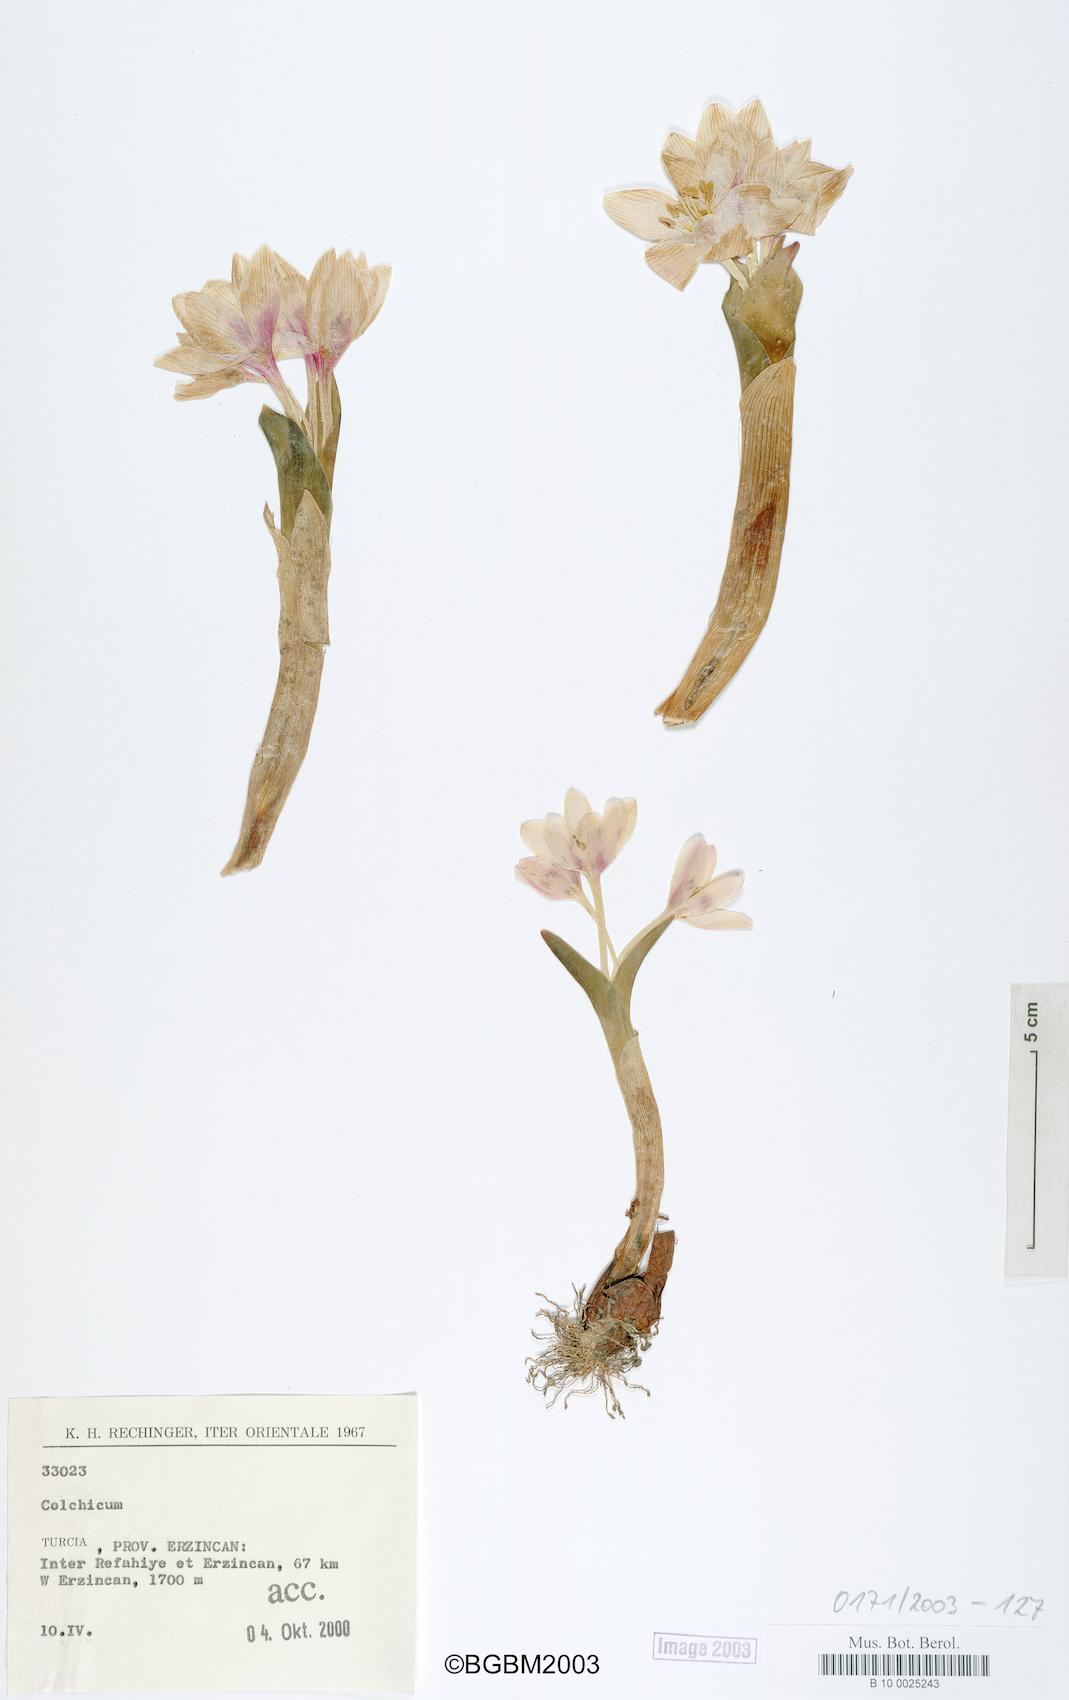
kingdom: Plantae
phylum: Tracheophyta
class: Liliopsida
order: Liliales
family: Colchicaceae
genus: Colchicum
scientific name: Colchicum
